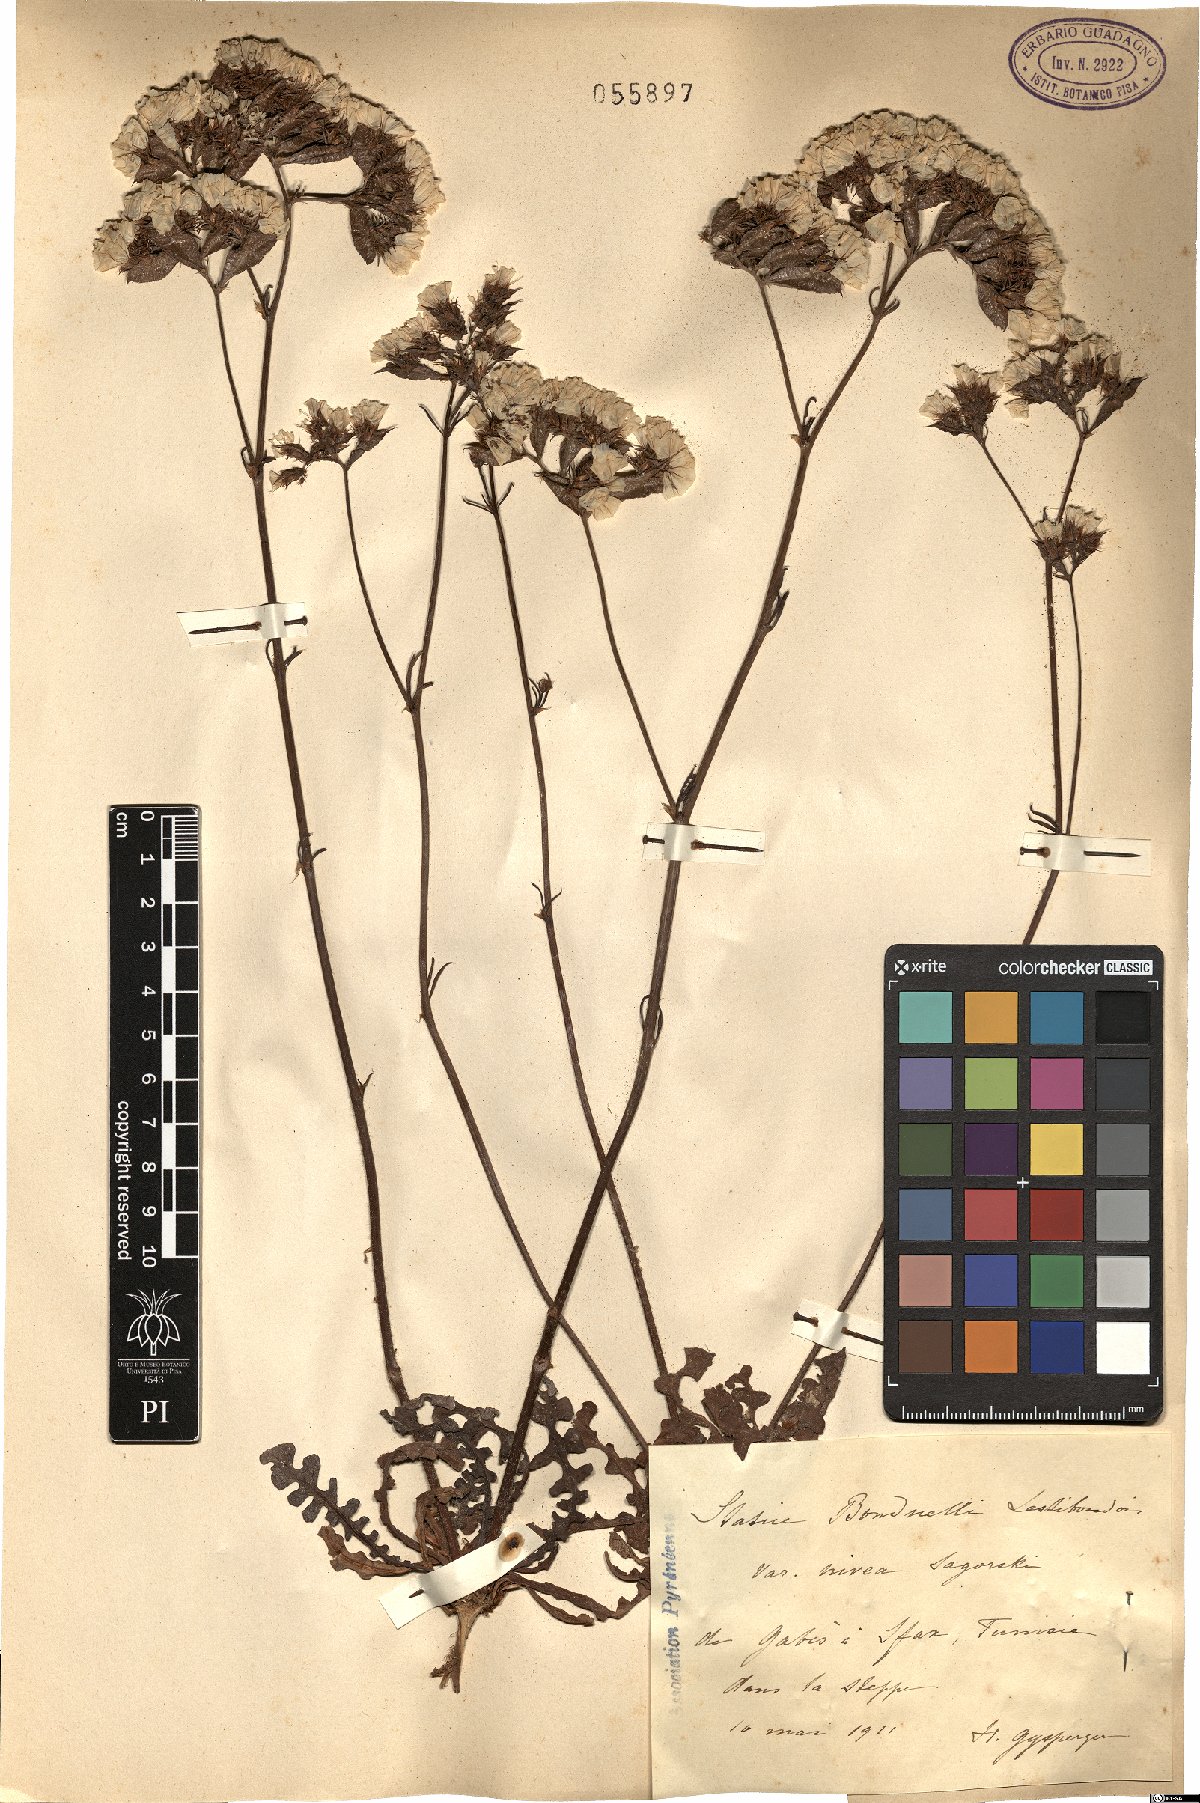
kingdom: Plantae
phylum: Tracheophyta
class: Magnoliopsida
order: Caryophyllales
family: Plumbaginaceae
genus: Limonium
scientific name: Limonium bonduellei
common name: Algerian statice
